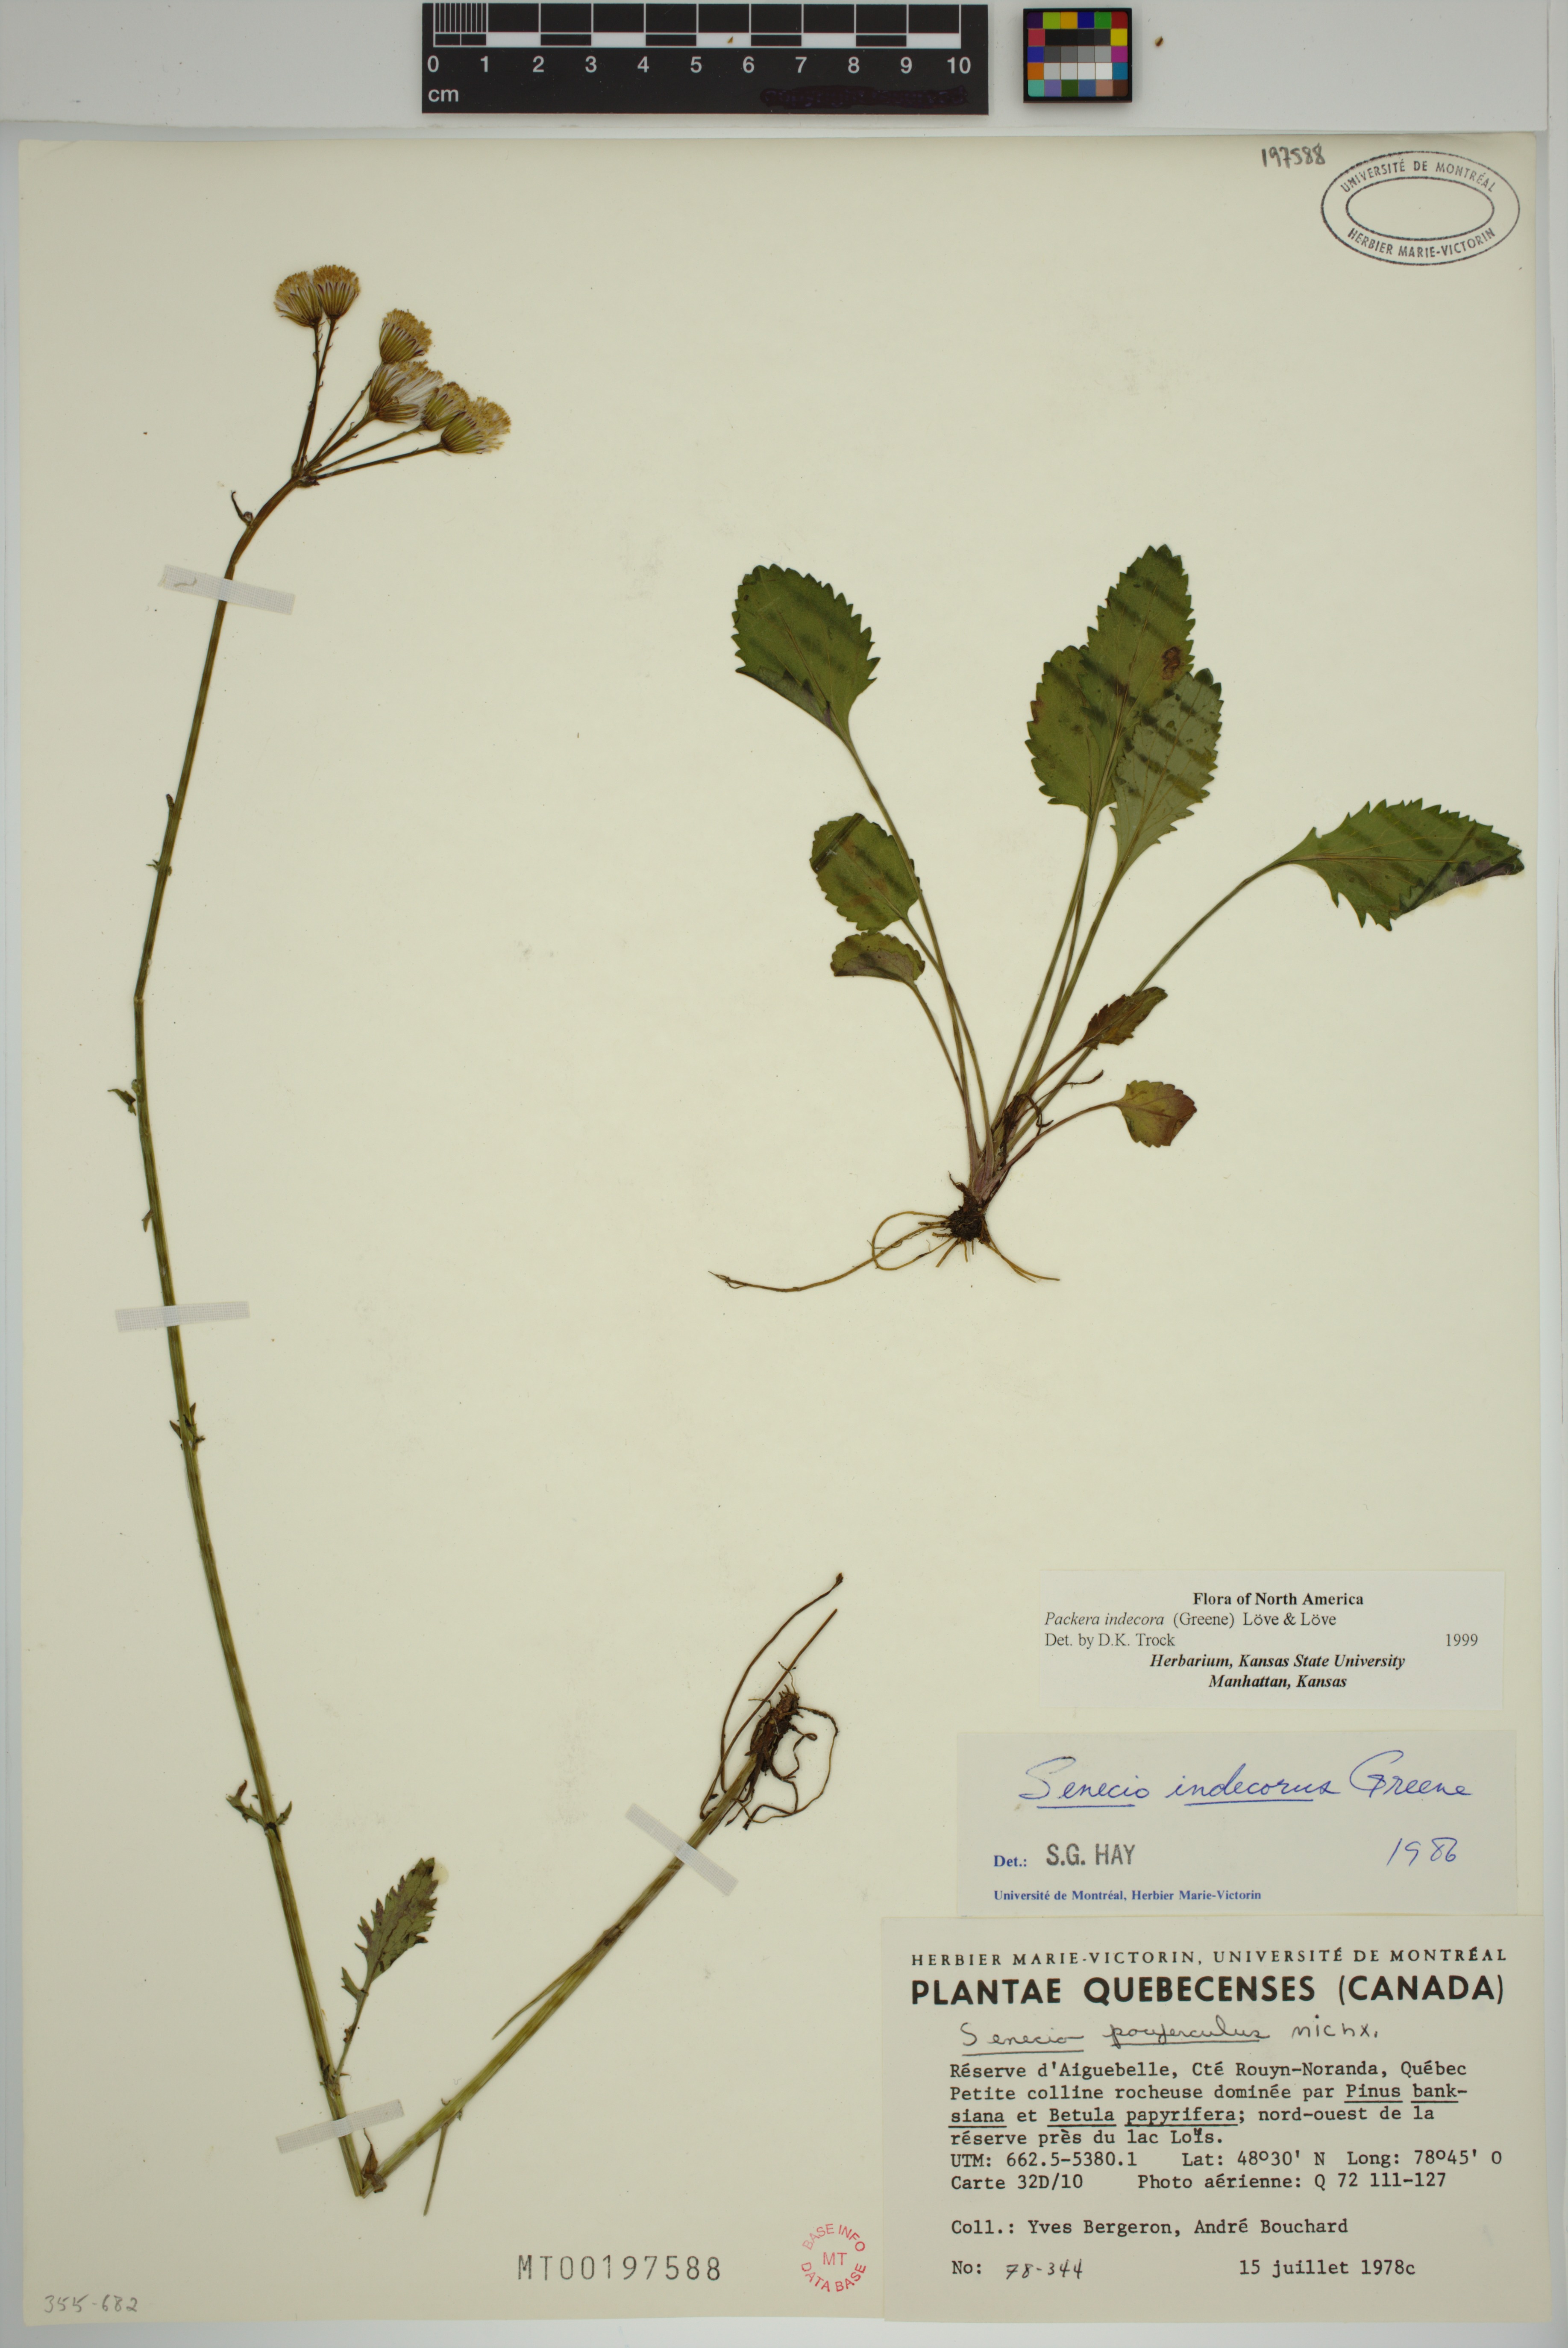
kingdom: Plantae
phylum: Tracheophyta
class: Magnoliopsida
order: Asterales
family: Asteraceae
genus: Packera
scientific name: Packera indecora
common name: Elegant groundsel
